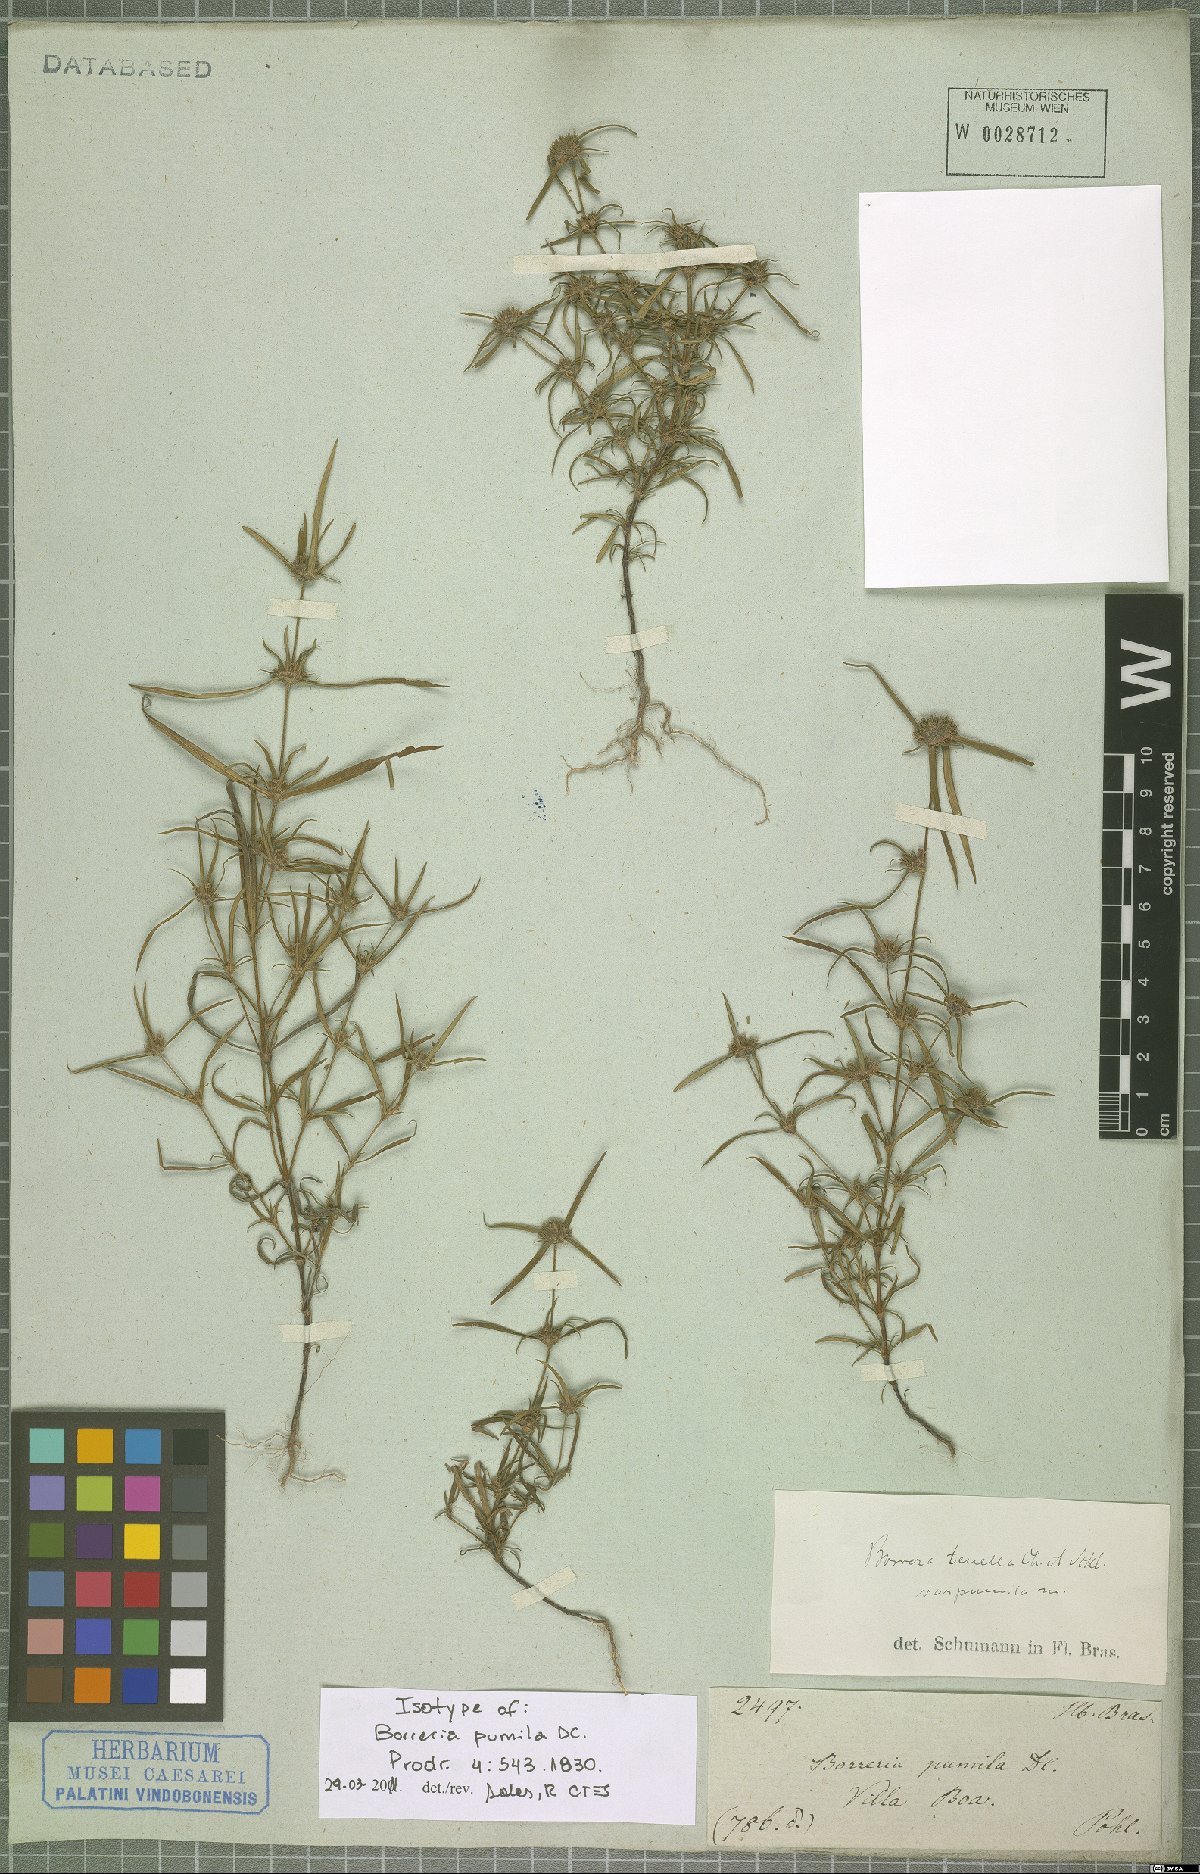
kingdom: Plantae
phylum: Tracheophyta
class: Magnoliopsida
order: Gentianales
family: Rubiaceae
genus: Spermacoce
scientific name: Spermacoce pohliana
